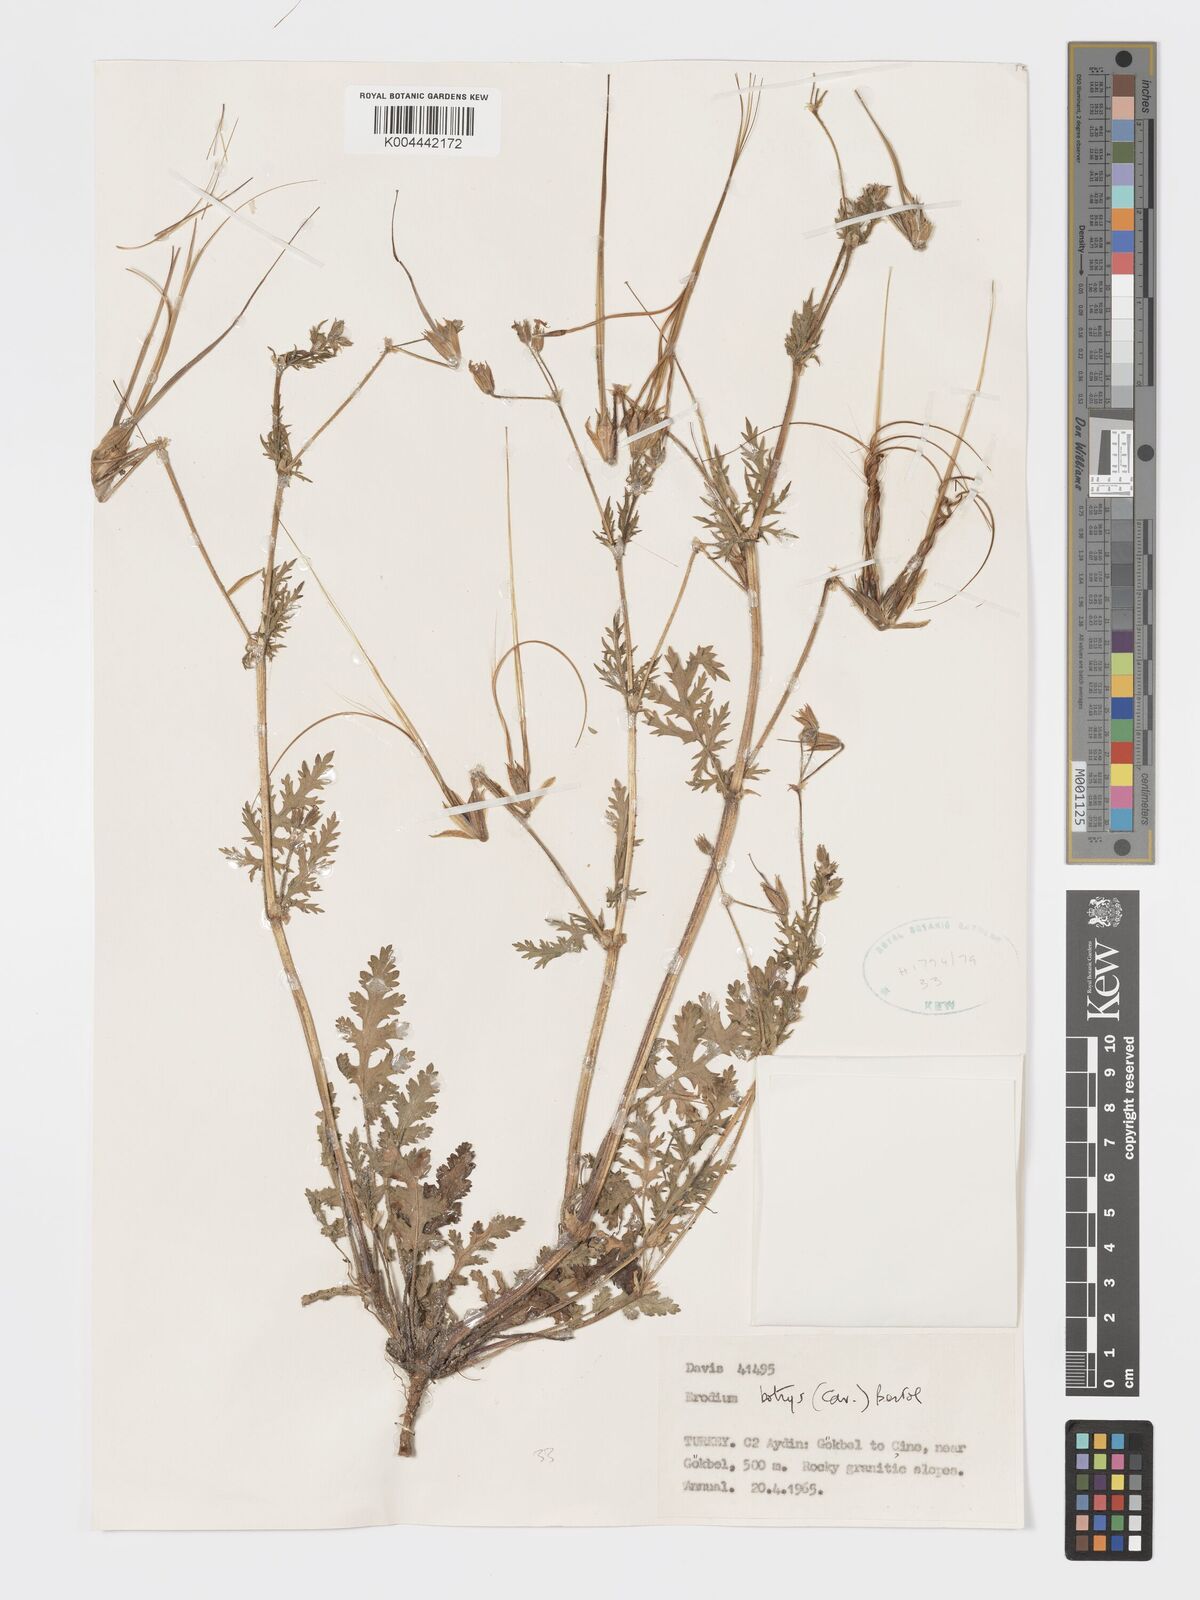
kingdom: Plantae
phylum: Tracheophyta
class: Magnoliopsida
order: Geraniales
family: Geraniaceae
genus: Erodium
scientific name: Erodium
